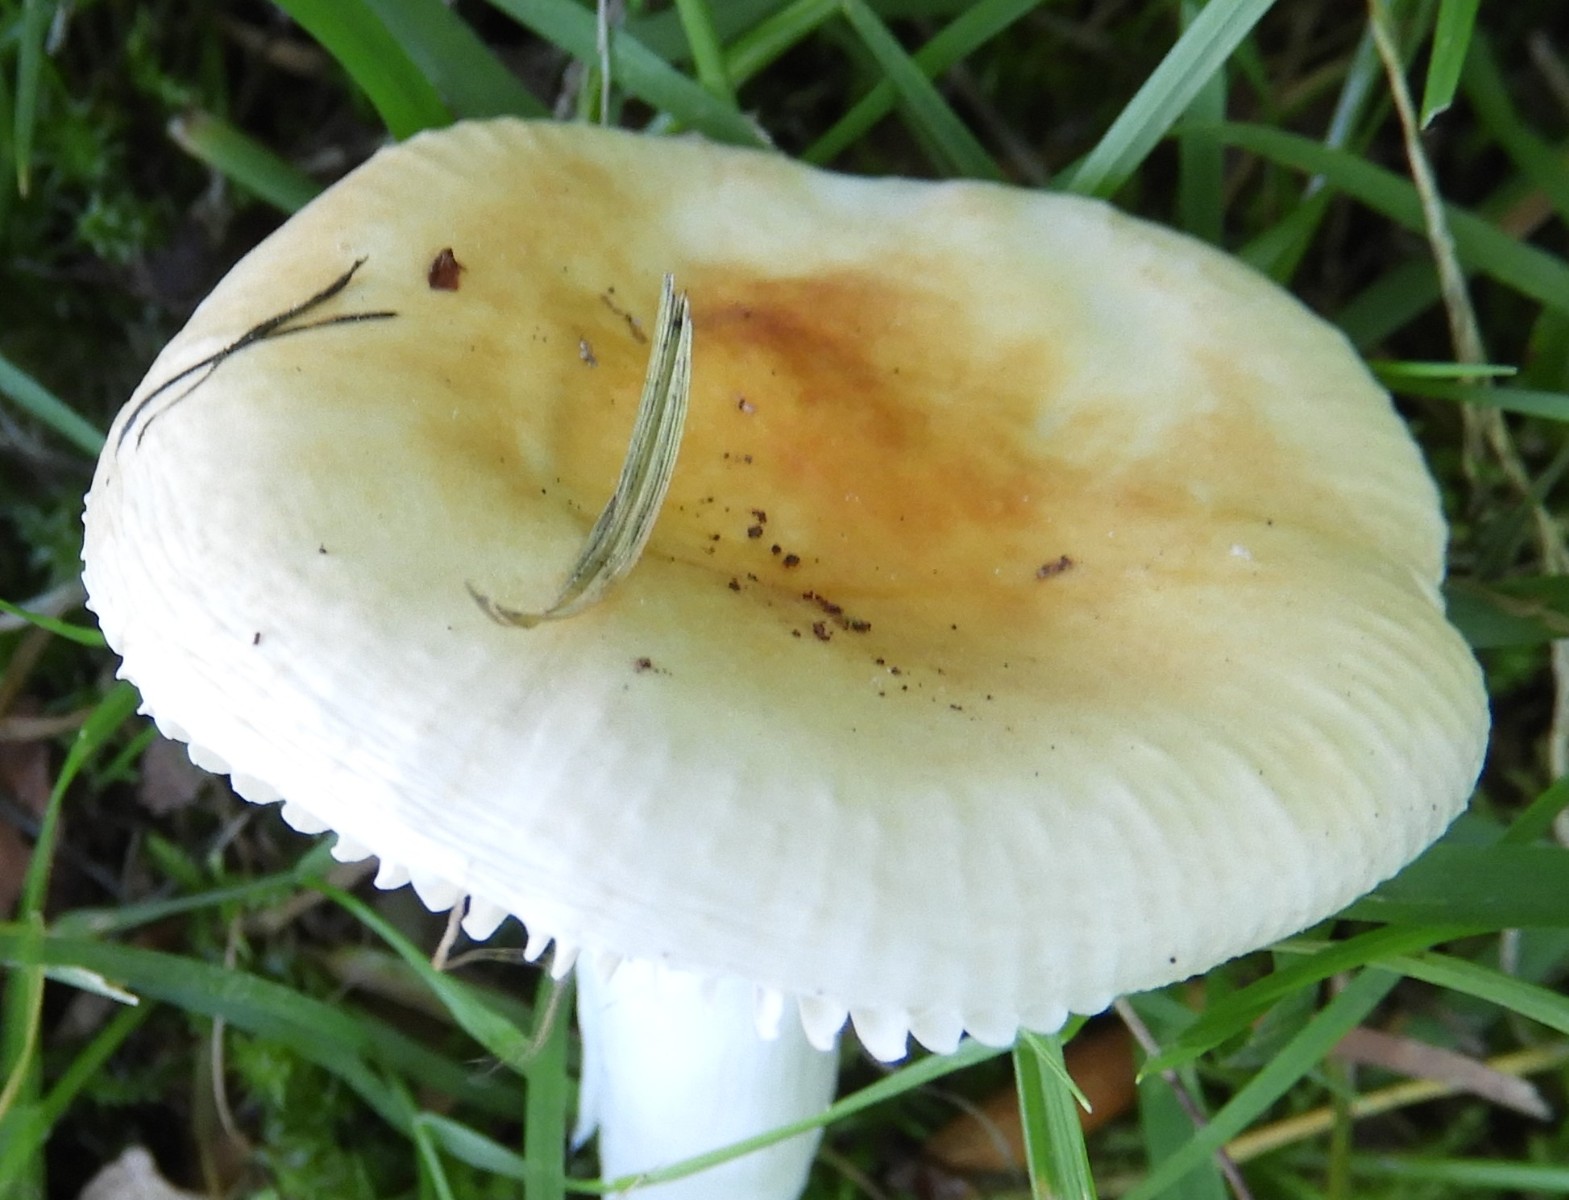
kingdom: Fungi
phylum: Basidiomycota
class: Agaricomycetes
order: Russulales
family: Russulaceae
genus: Russula
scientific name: Russula solaris
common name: sol-skørhat
